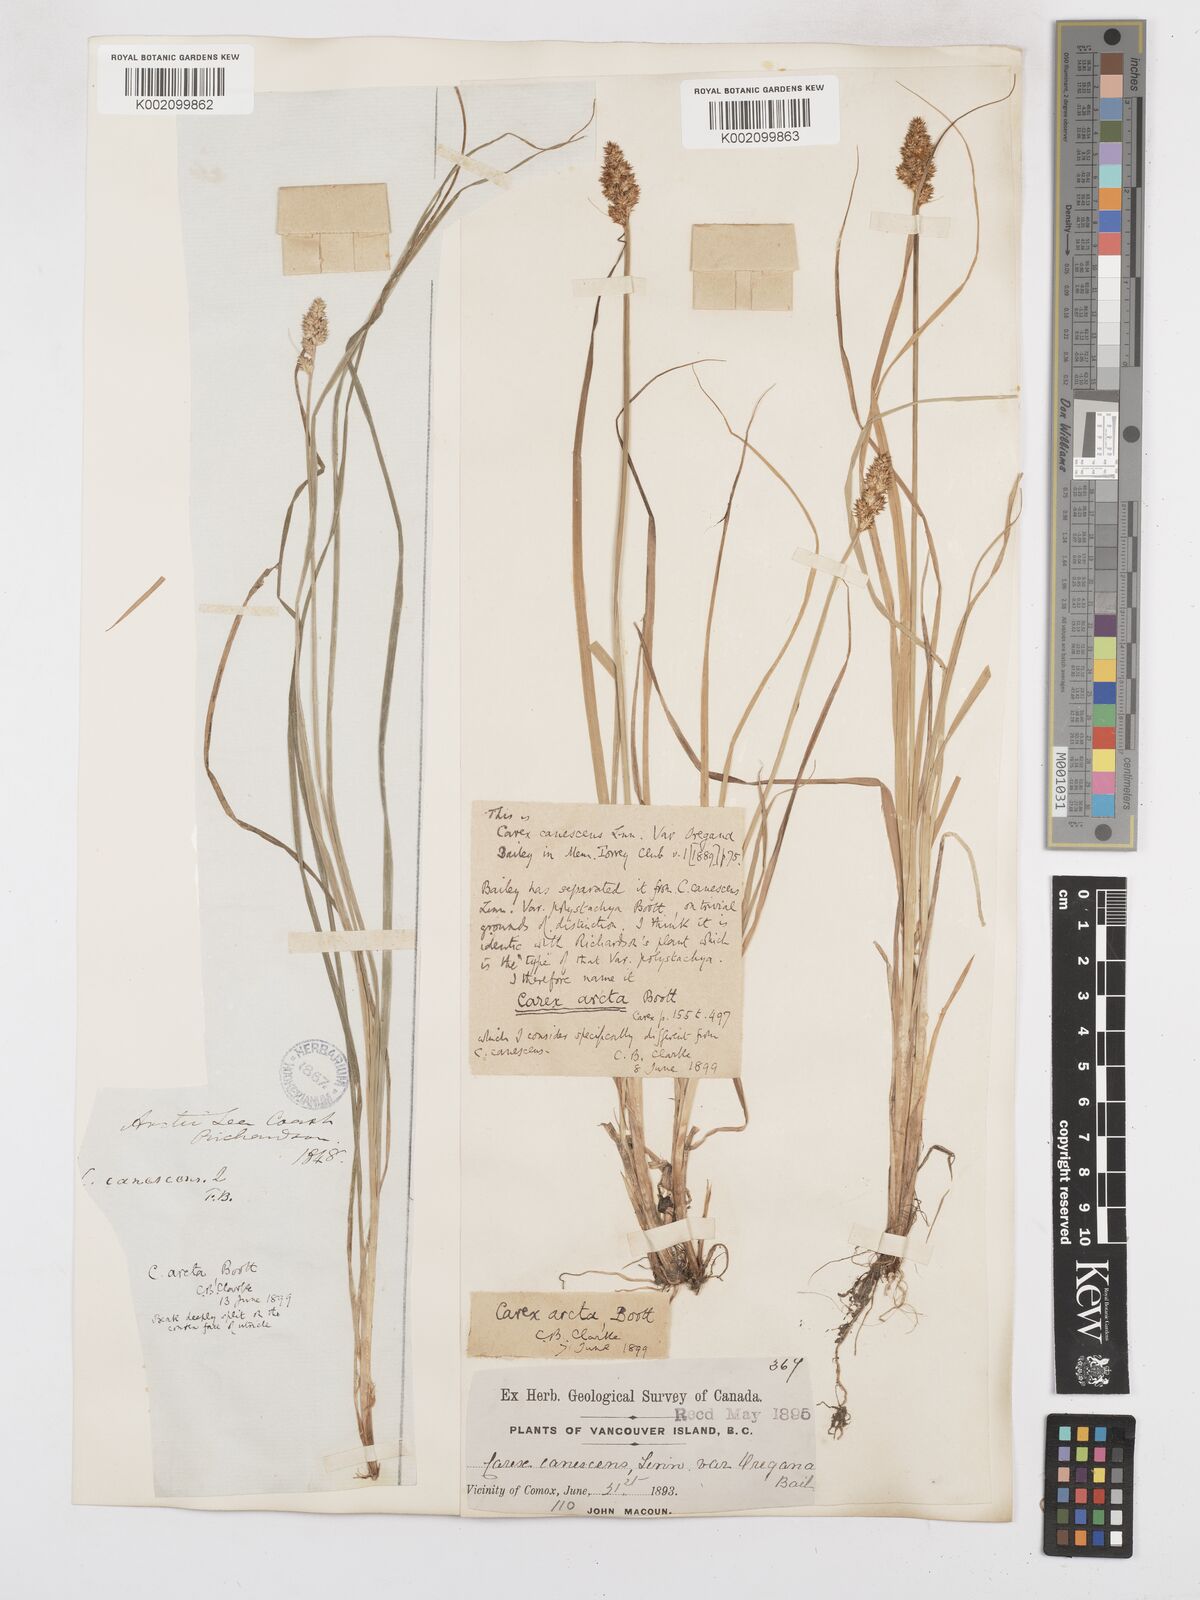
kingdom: Plantae
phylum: Tracheophyta
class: Liliopsida
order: Poales
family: Cyperaceae
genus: Carex
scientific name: Carex arcta
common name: Bear sedge
